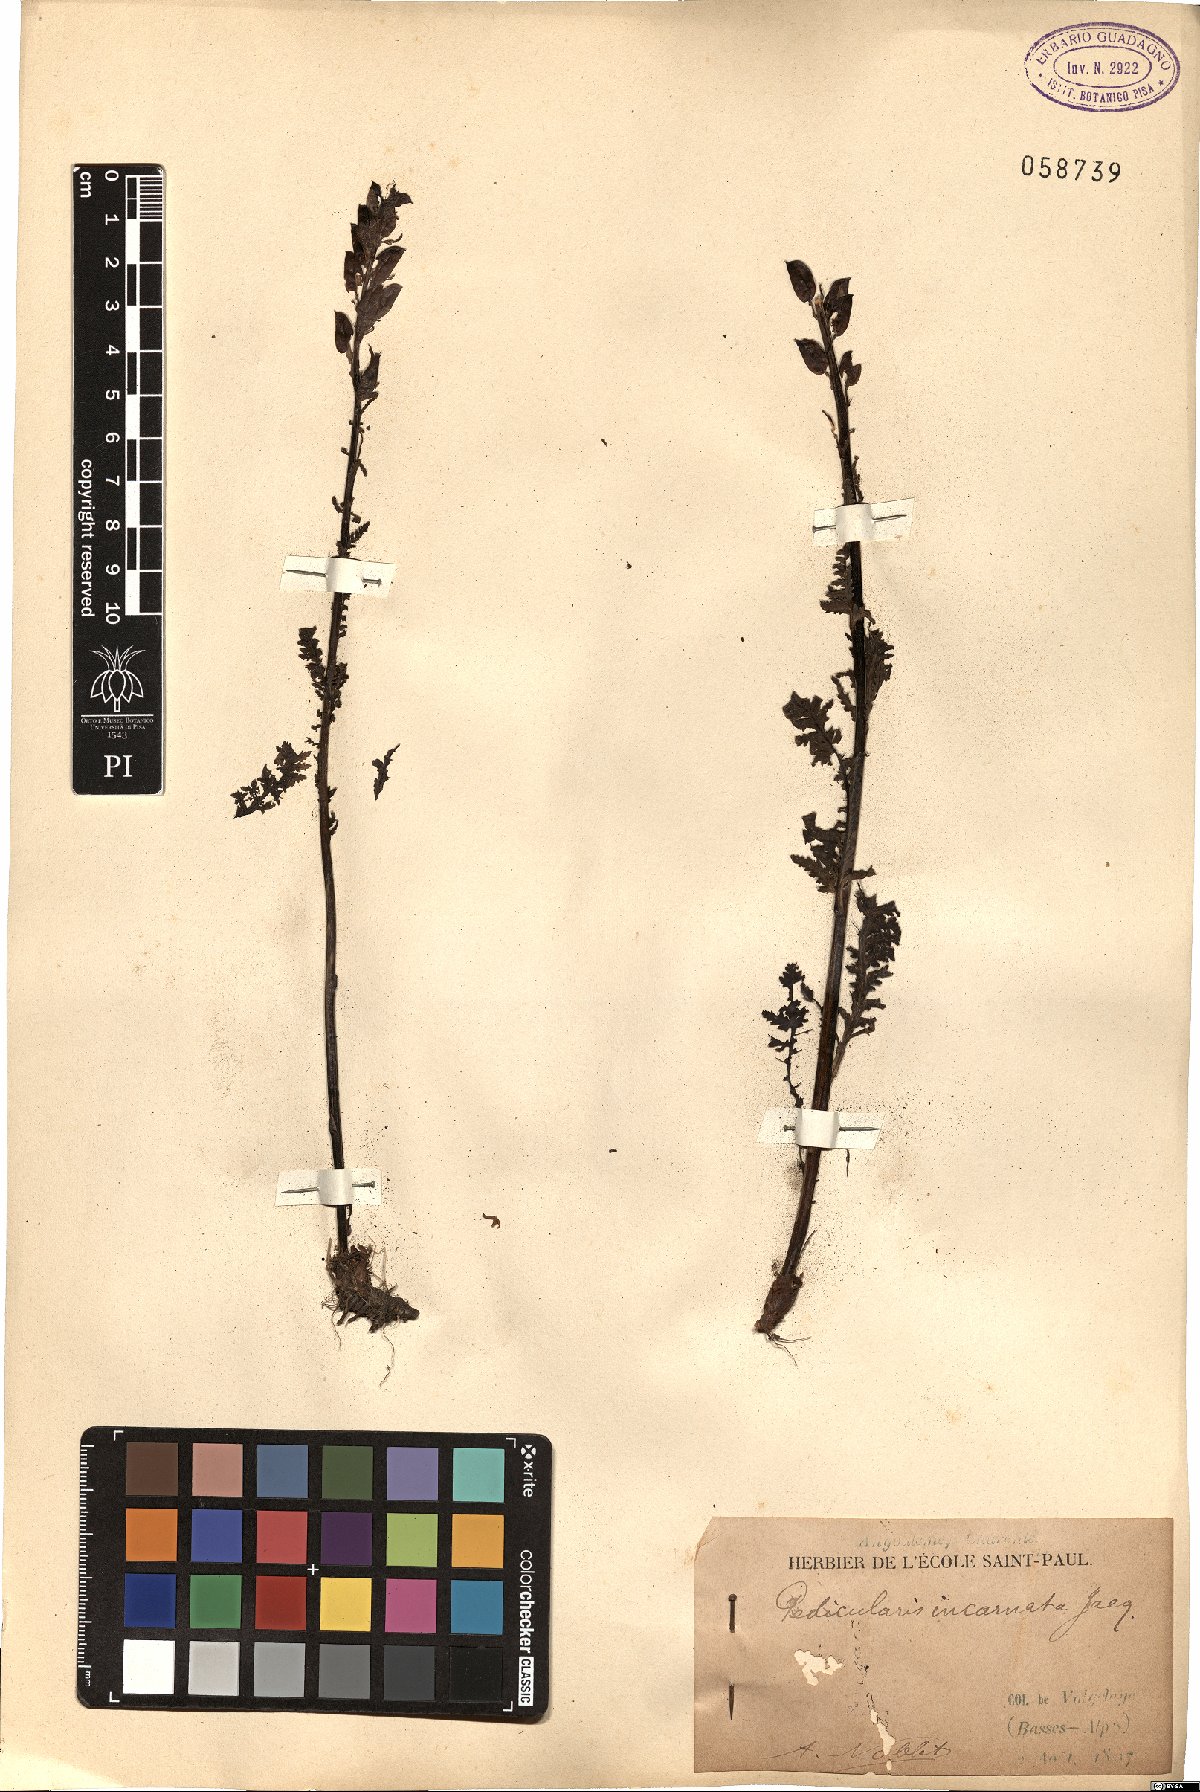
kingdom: Plantae
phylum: Tracheophyta
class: Magnoliopsida
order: Lamiales
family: Orobanchaceae
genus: Pedicularis
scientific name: Pedicularis rostratospicata
